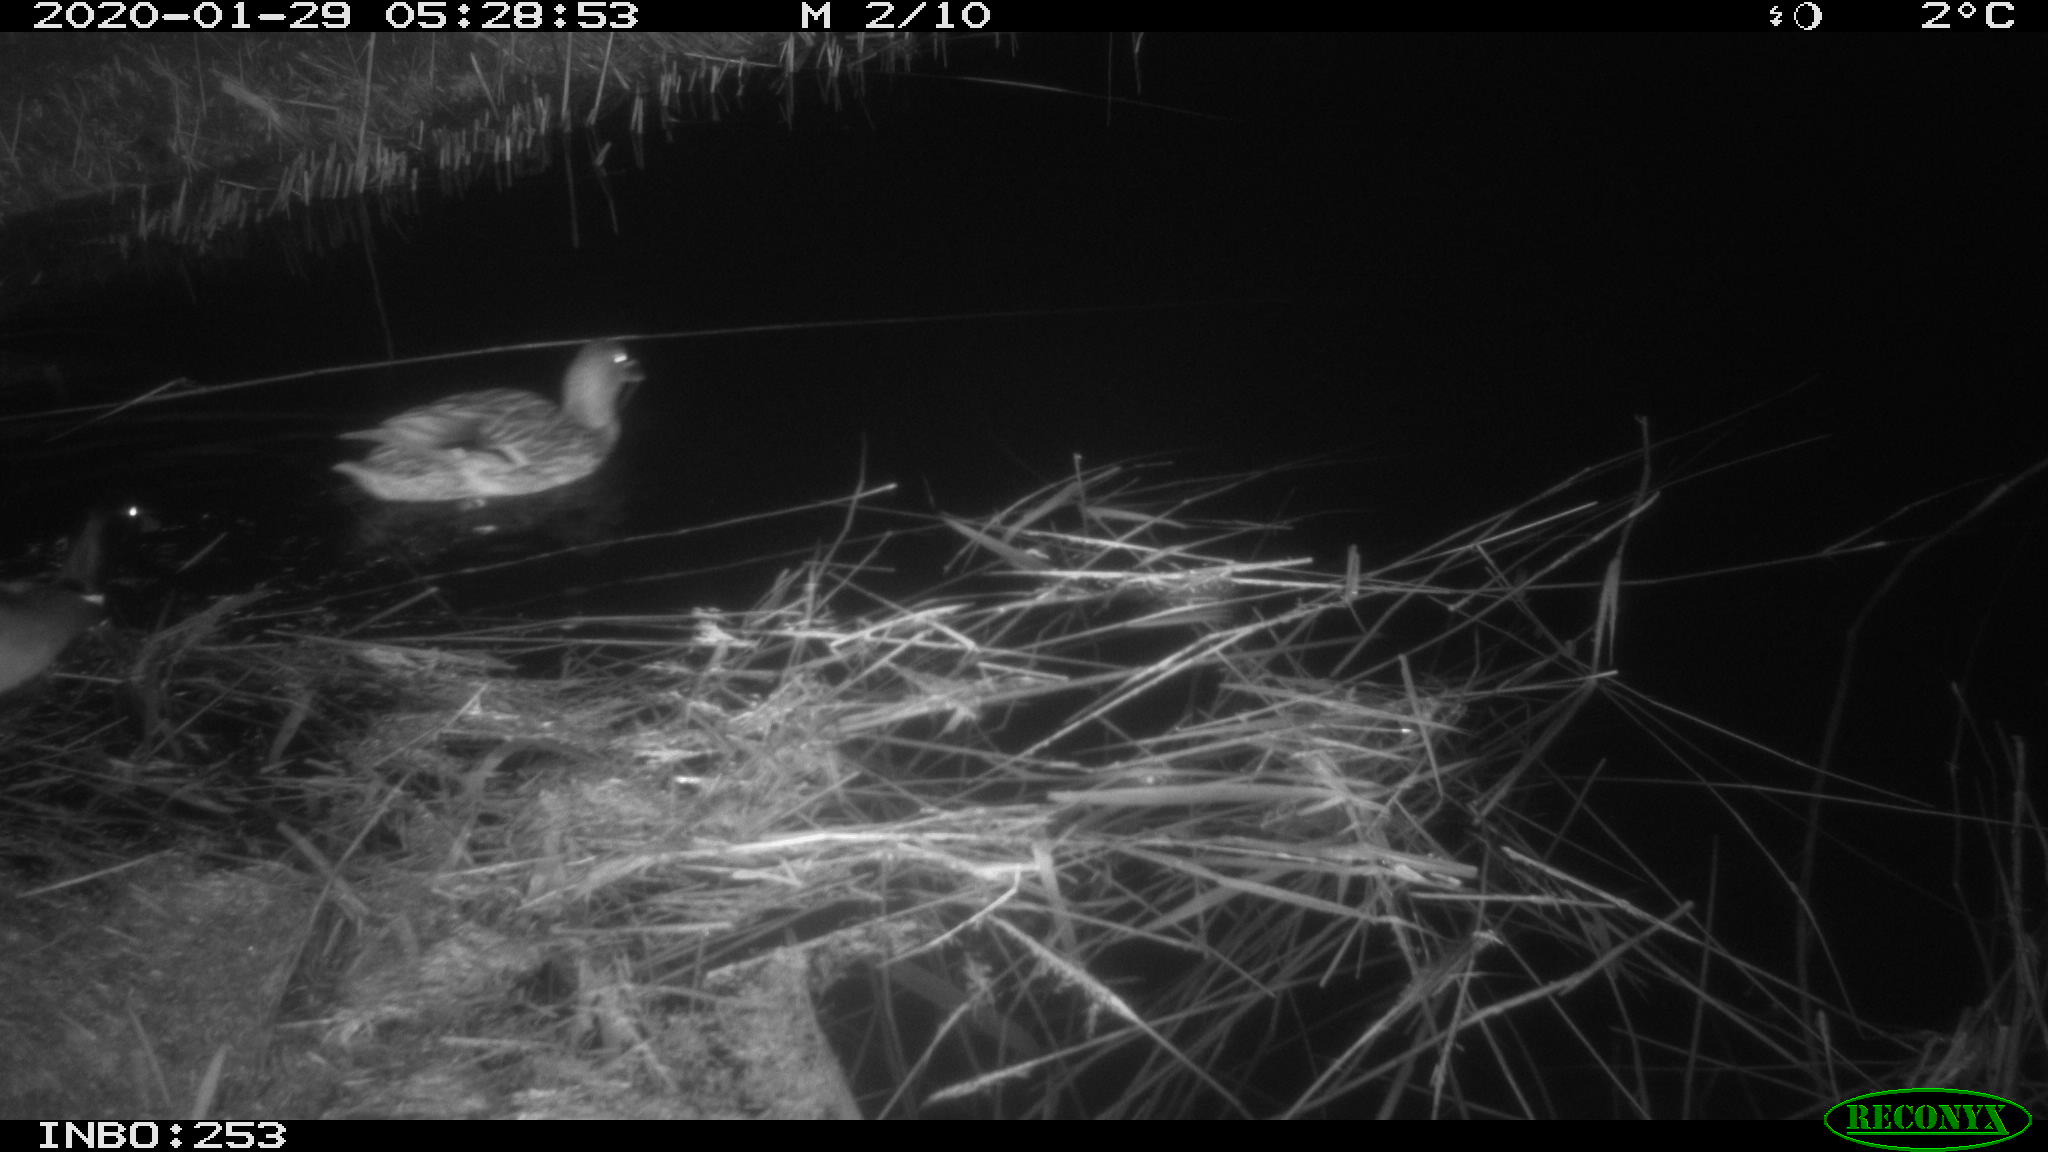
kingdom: Animalia
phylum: Chordata
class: Aves
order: Anseriformes
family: Anatidae
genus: Anas
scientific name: Anas platyrhynchos
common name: Mallard
